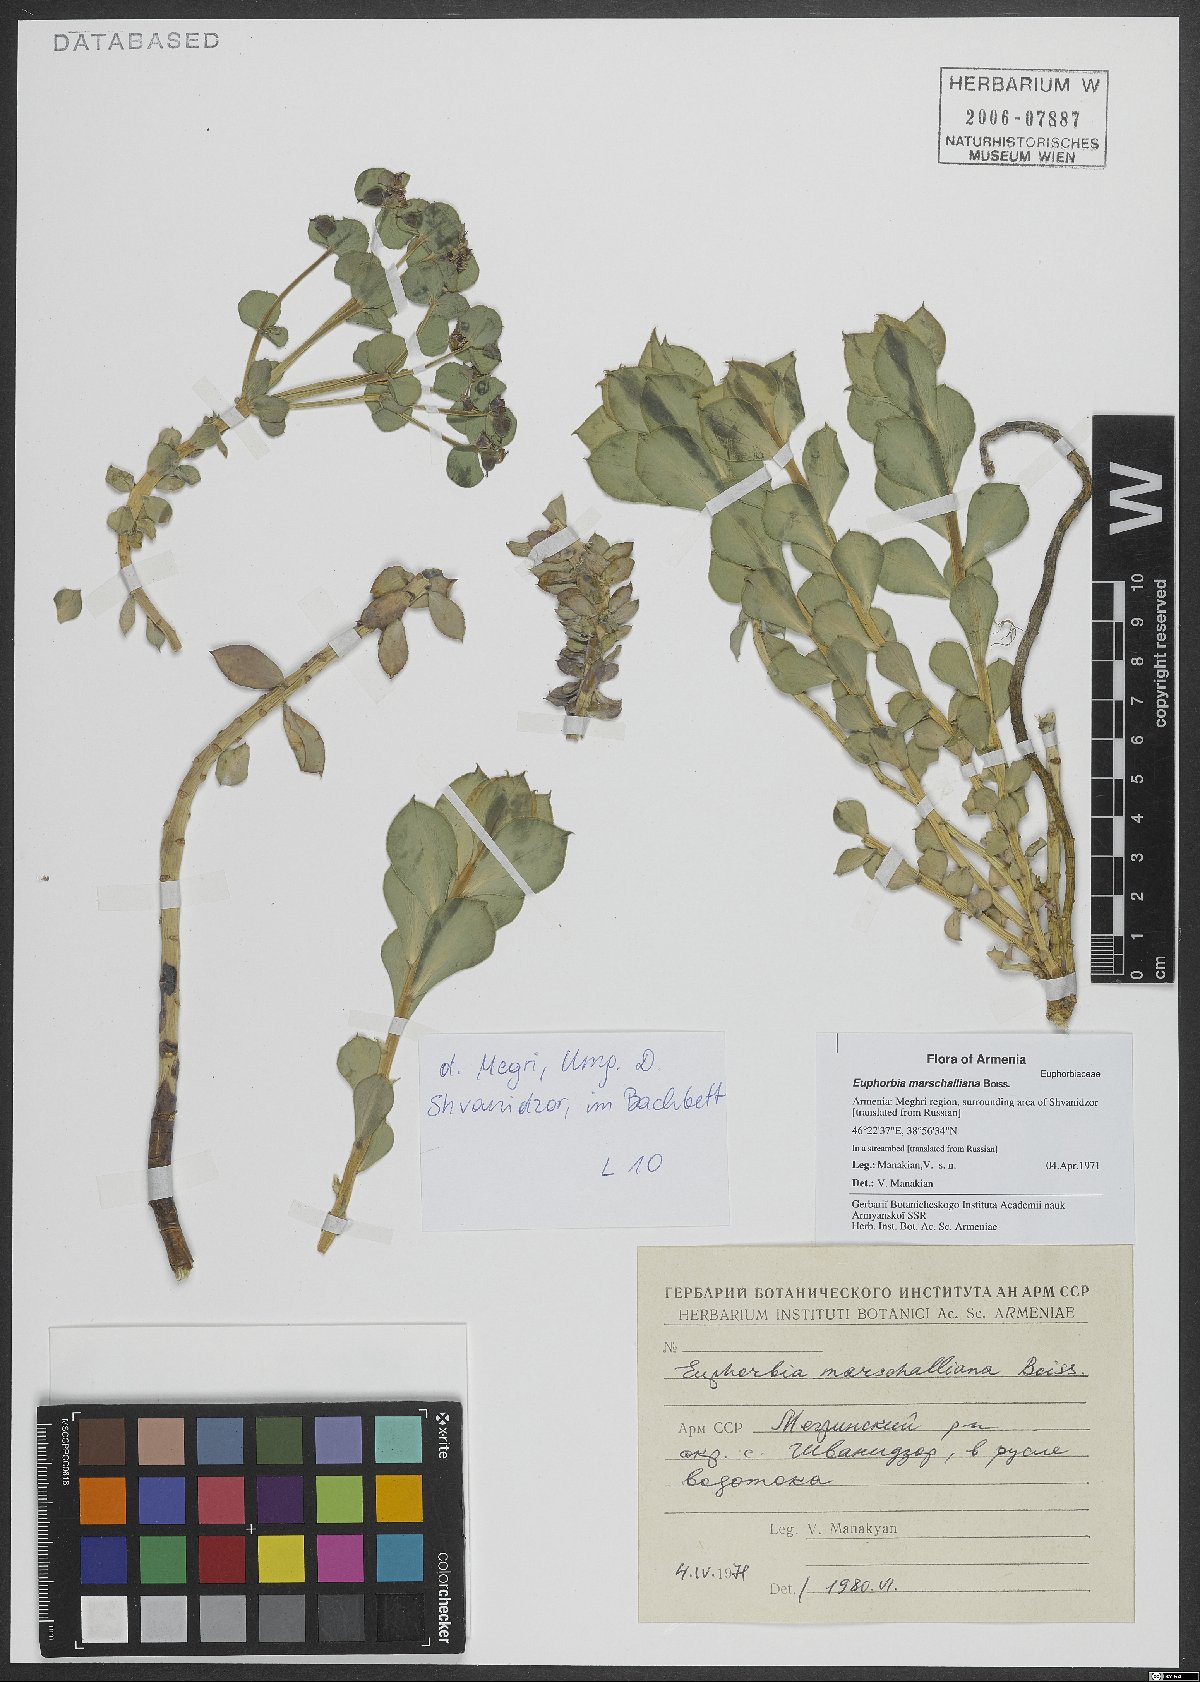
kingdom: Plantae
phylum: Tracheophyta
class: Magnoliopsida
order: Malpighiales
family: Euphorbiaceae
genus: Euphorbia
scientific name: Euphorbia marschalliana
